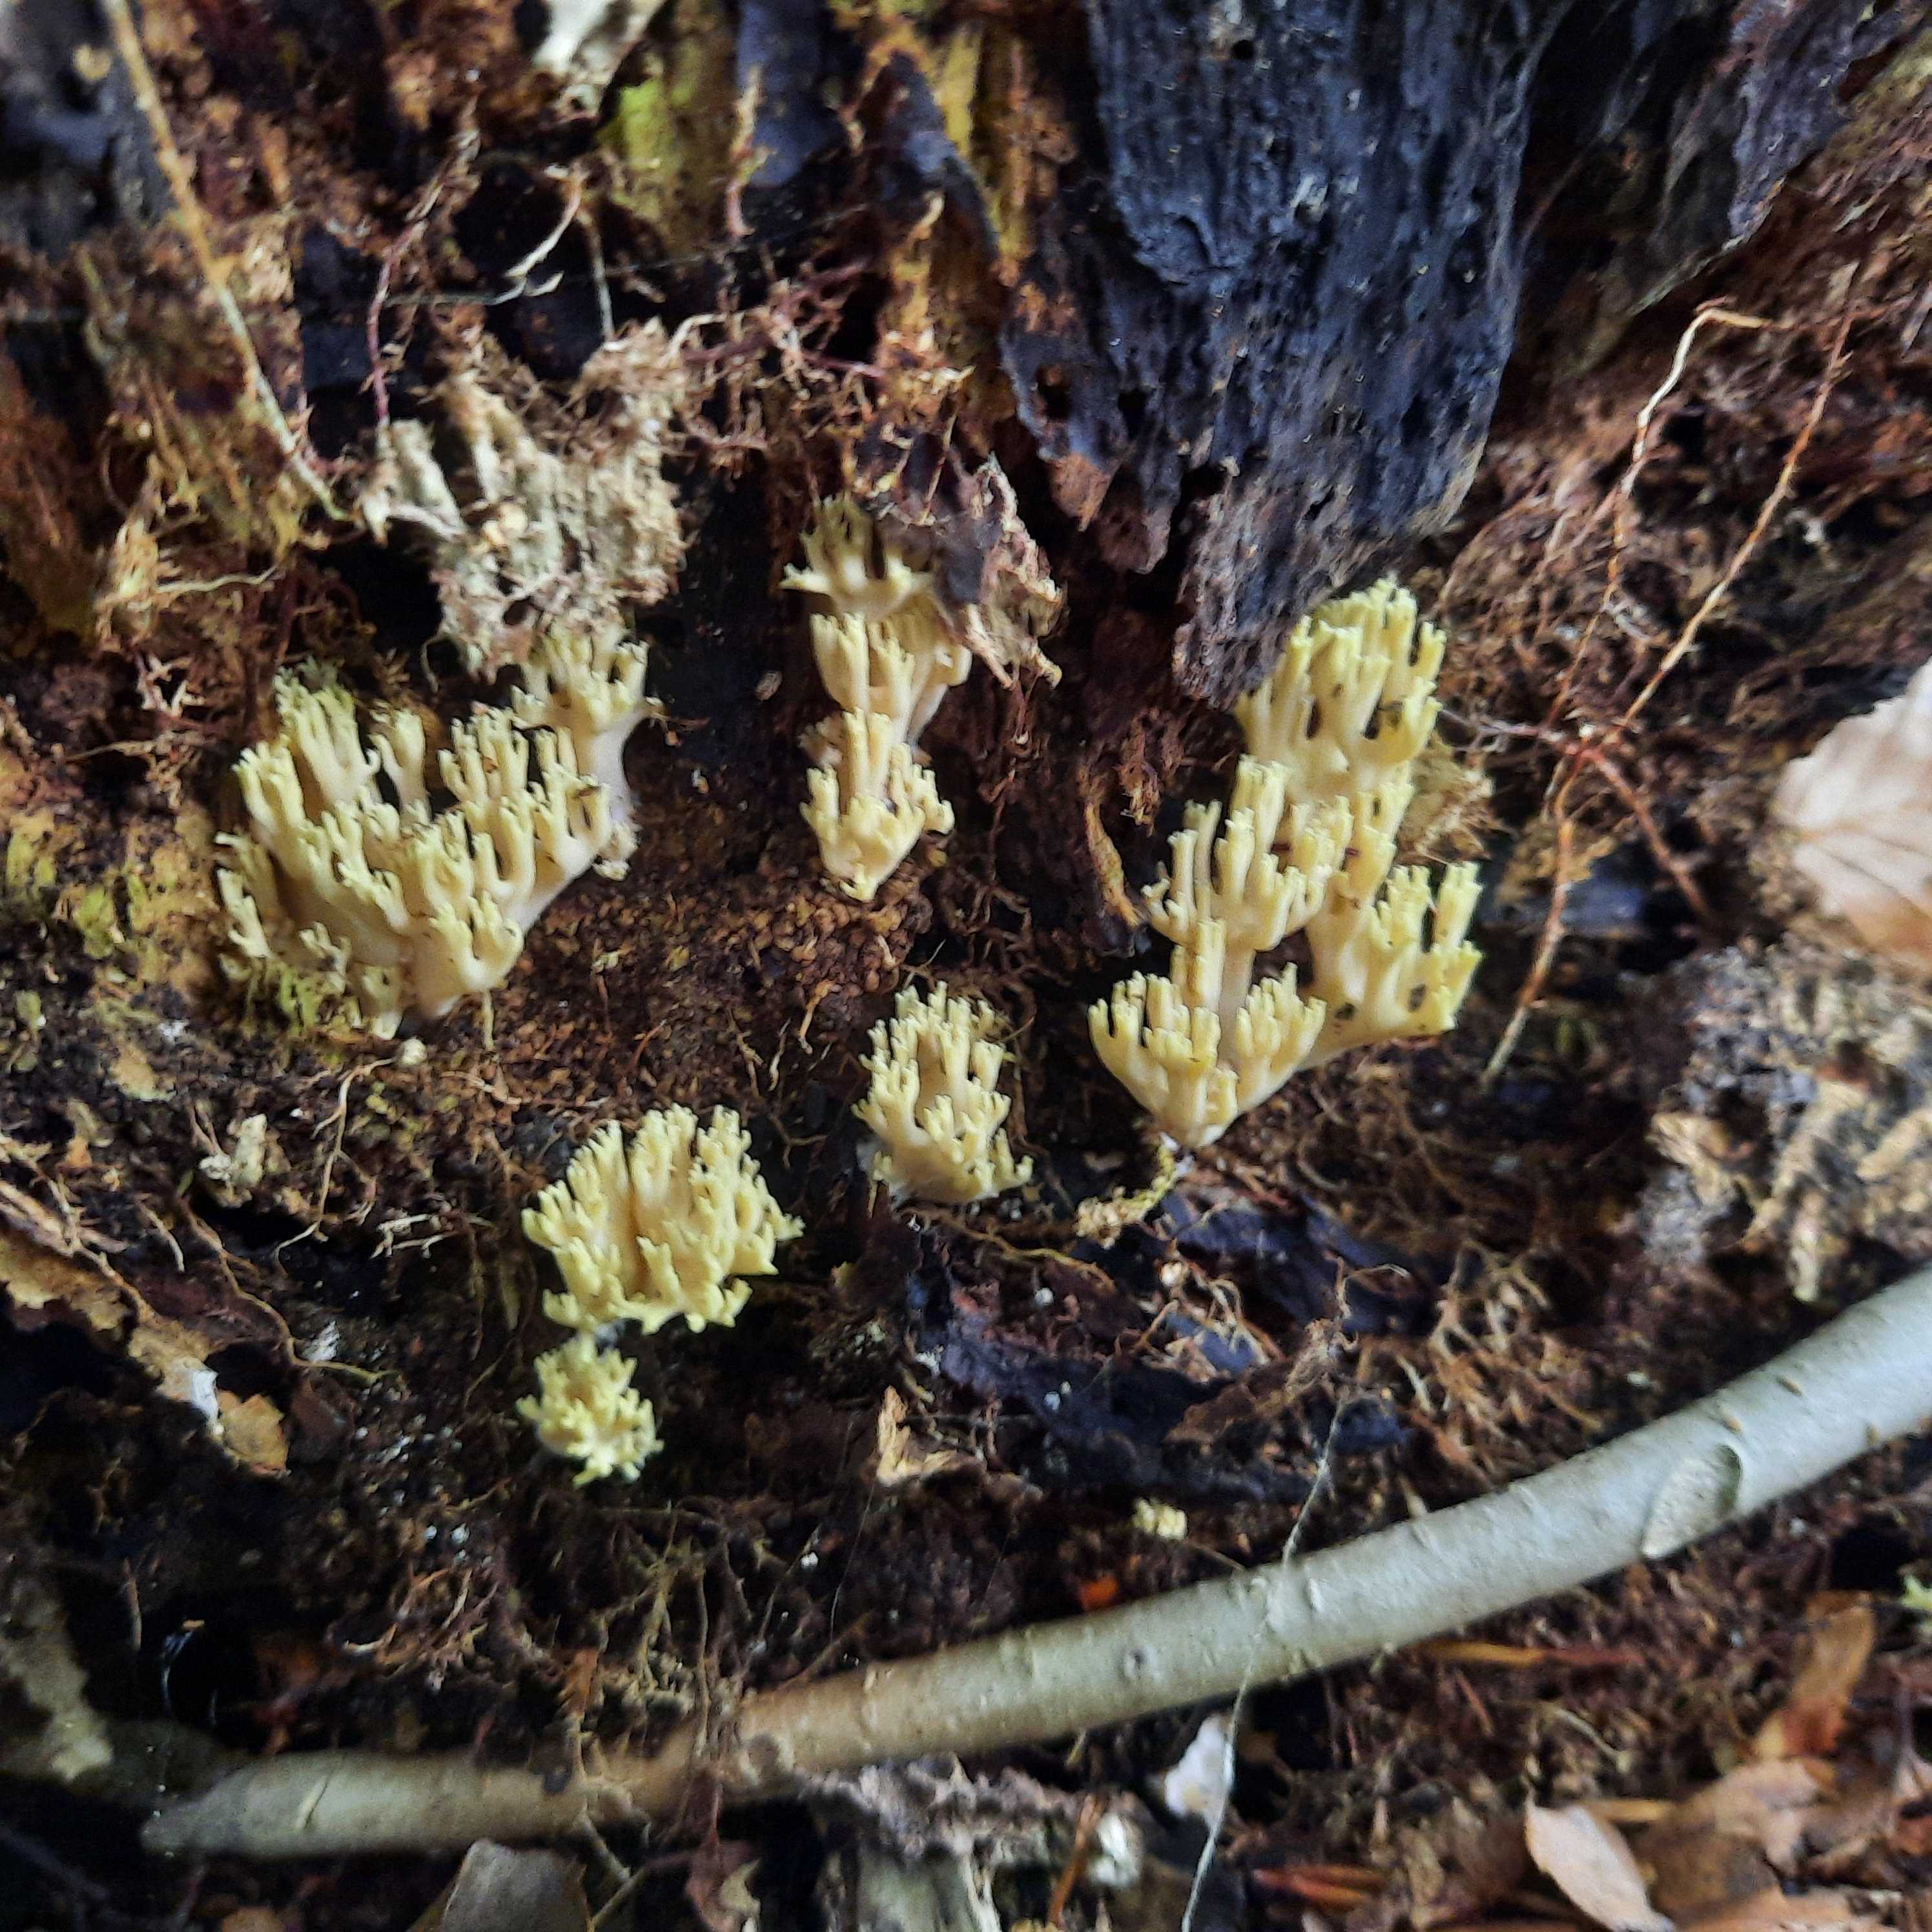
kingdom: Fungi
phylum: Basidiomycota
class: Agaricomycetes
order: Gomphales
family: Gomphaceae
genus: Ramaria
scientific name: Ramaria stricta
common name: rank koralsvamp
